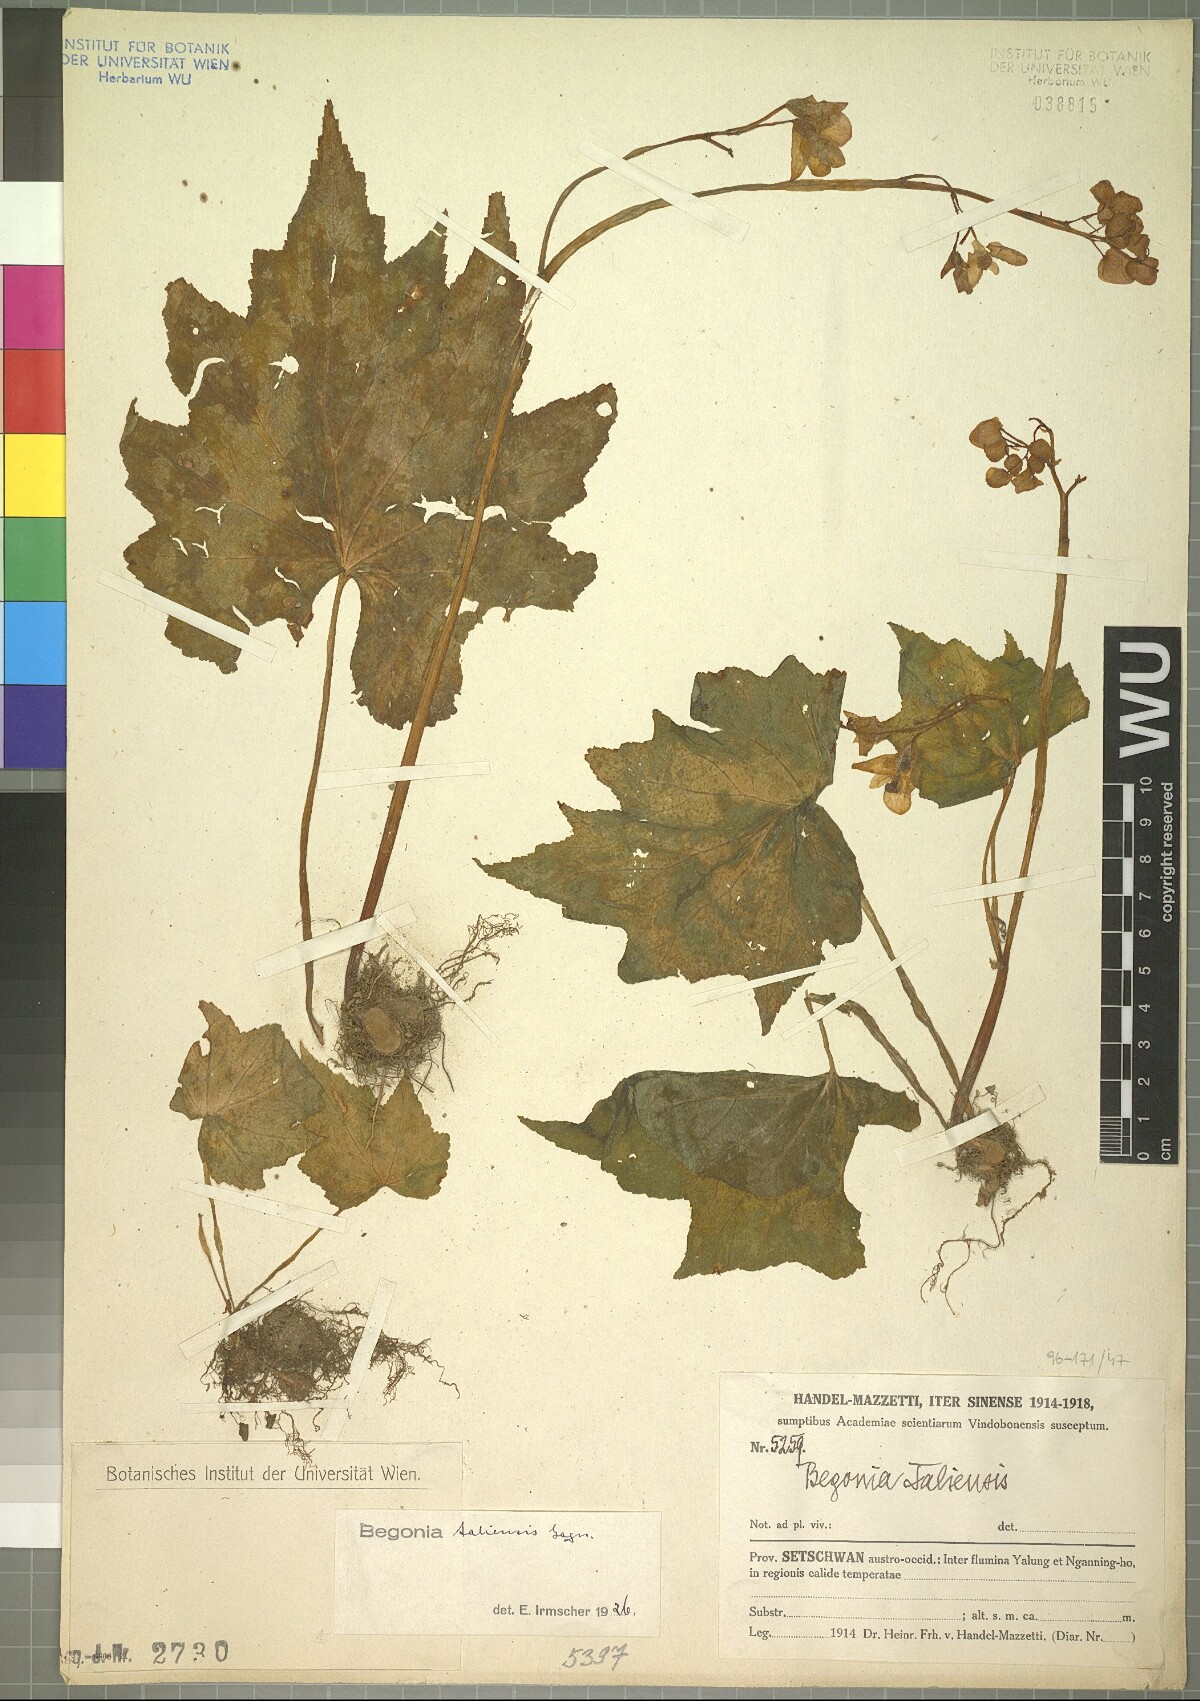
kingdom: Plantae
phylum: Tracheophyta
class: Magnoliopsida
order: Cucurbitales
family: Begoniaceae
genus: Begonia
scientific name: Begonia taliensis
